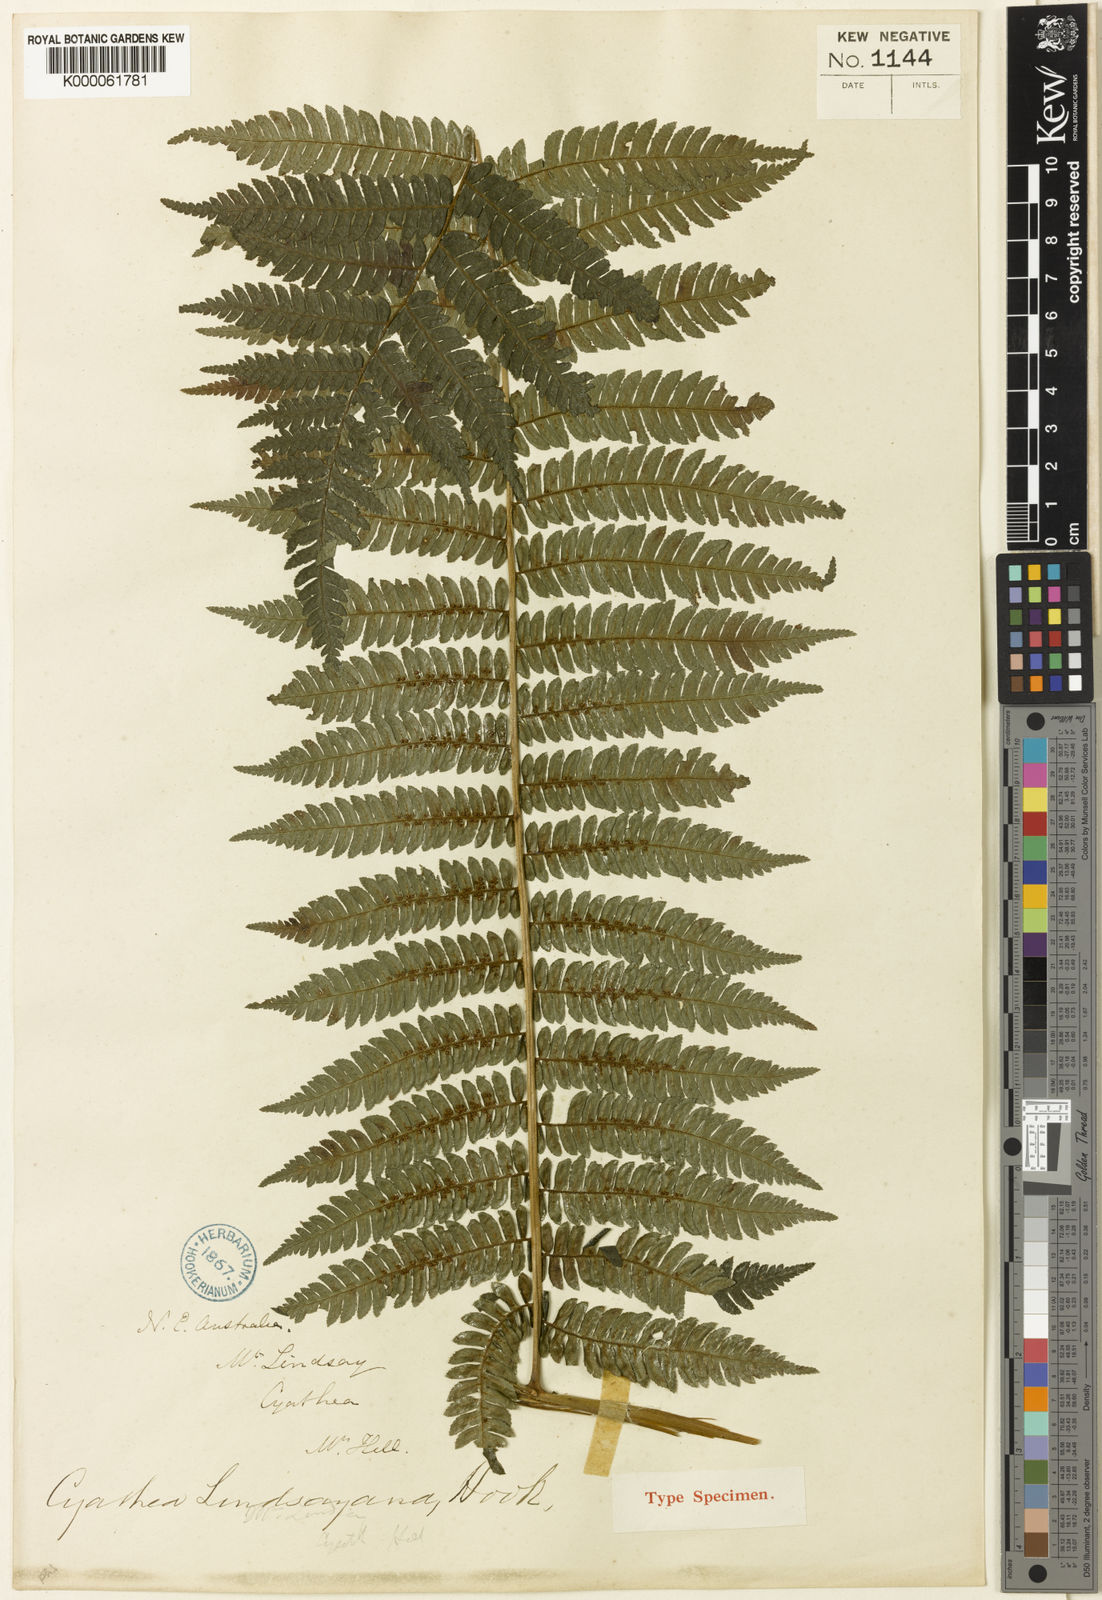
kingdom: Plantae
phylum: Tracheophyta
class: Polypodiopsida
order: Cyatheales
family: Cyatheaceae
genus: Alsophila
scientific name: Alsophila grevilleana
